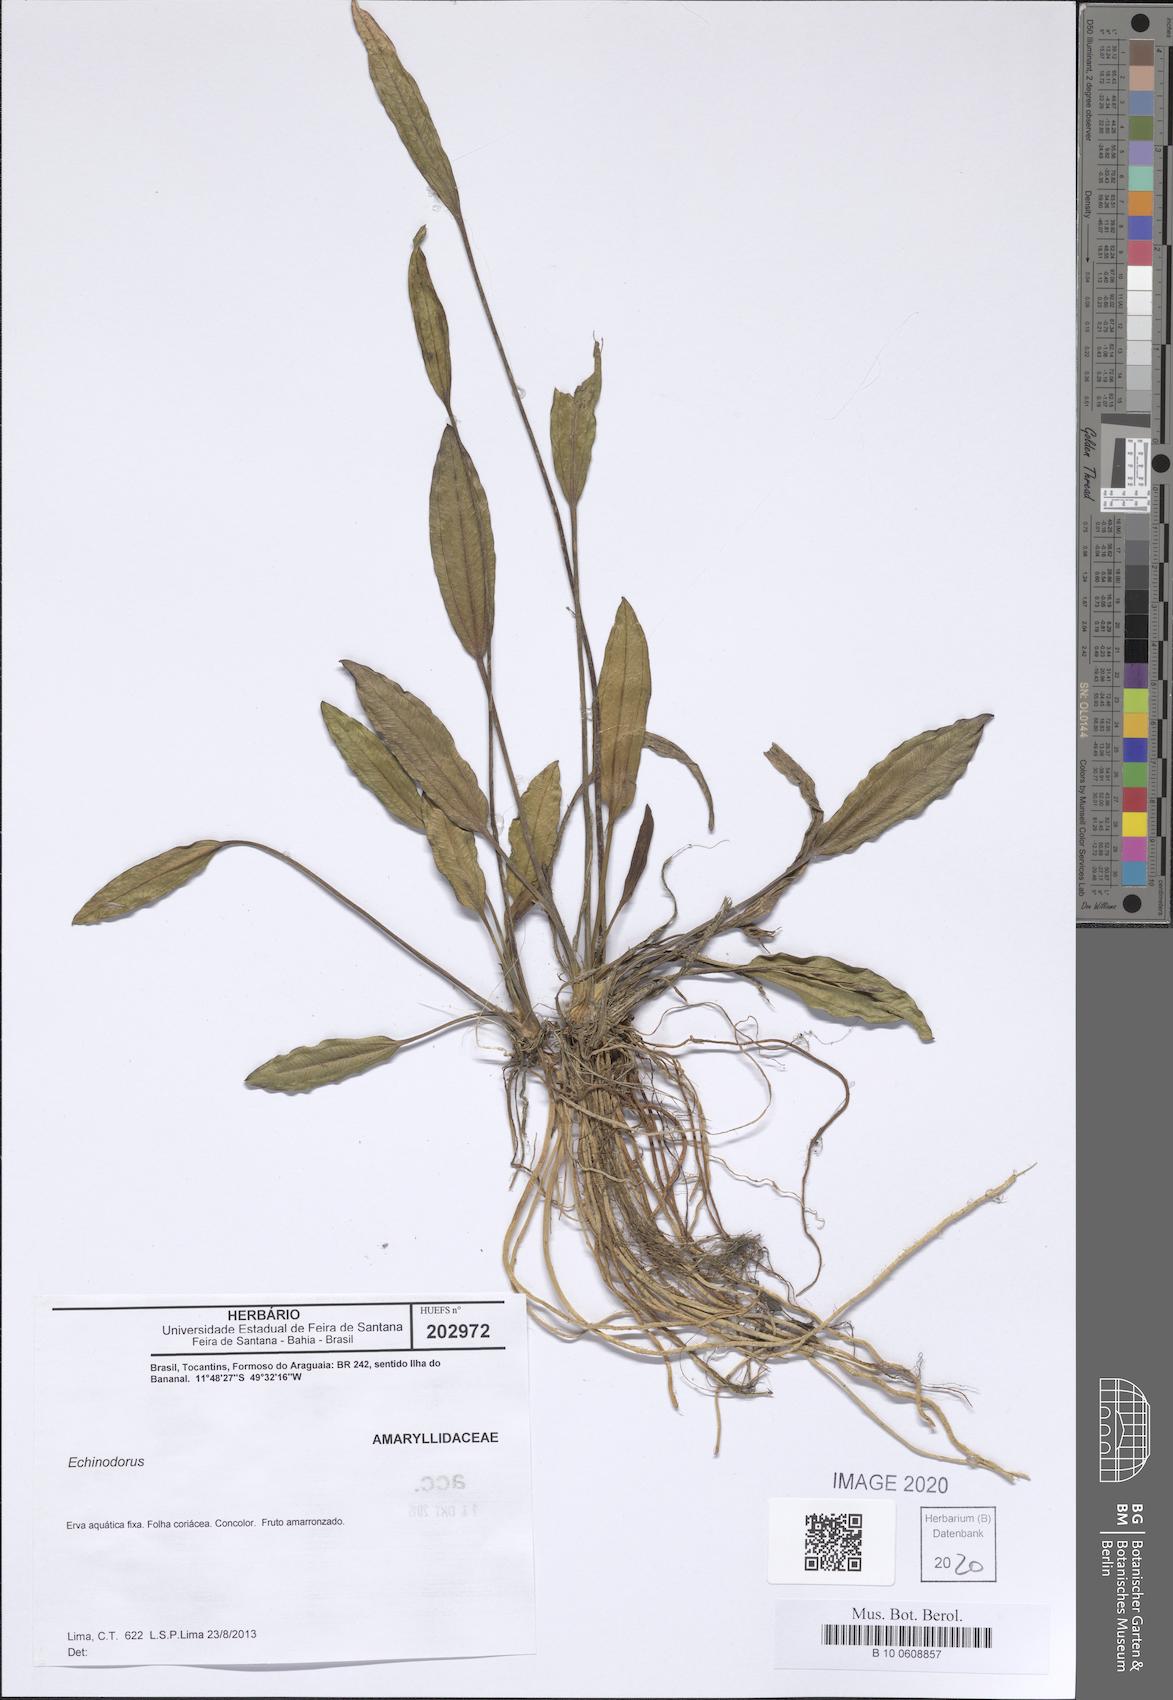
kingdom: Plantae
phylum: Tracheophyta
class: Liliopsida
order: Alismatales
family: Alismataceae
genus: Echinodorus
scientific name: Echinodorus
